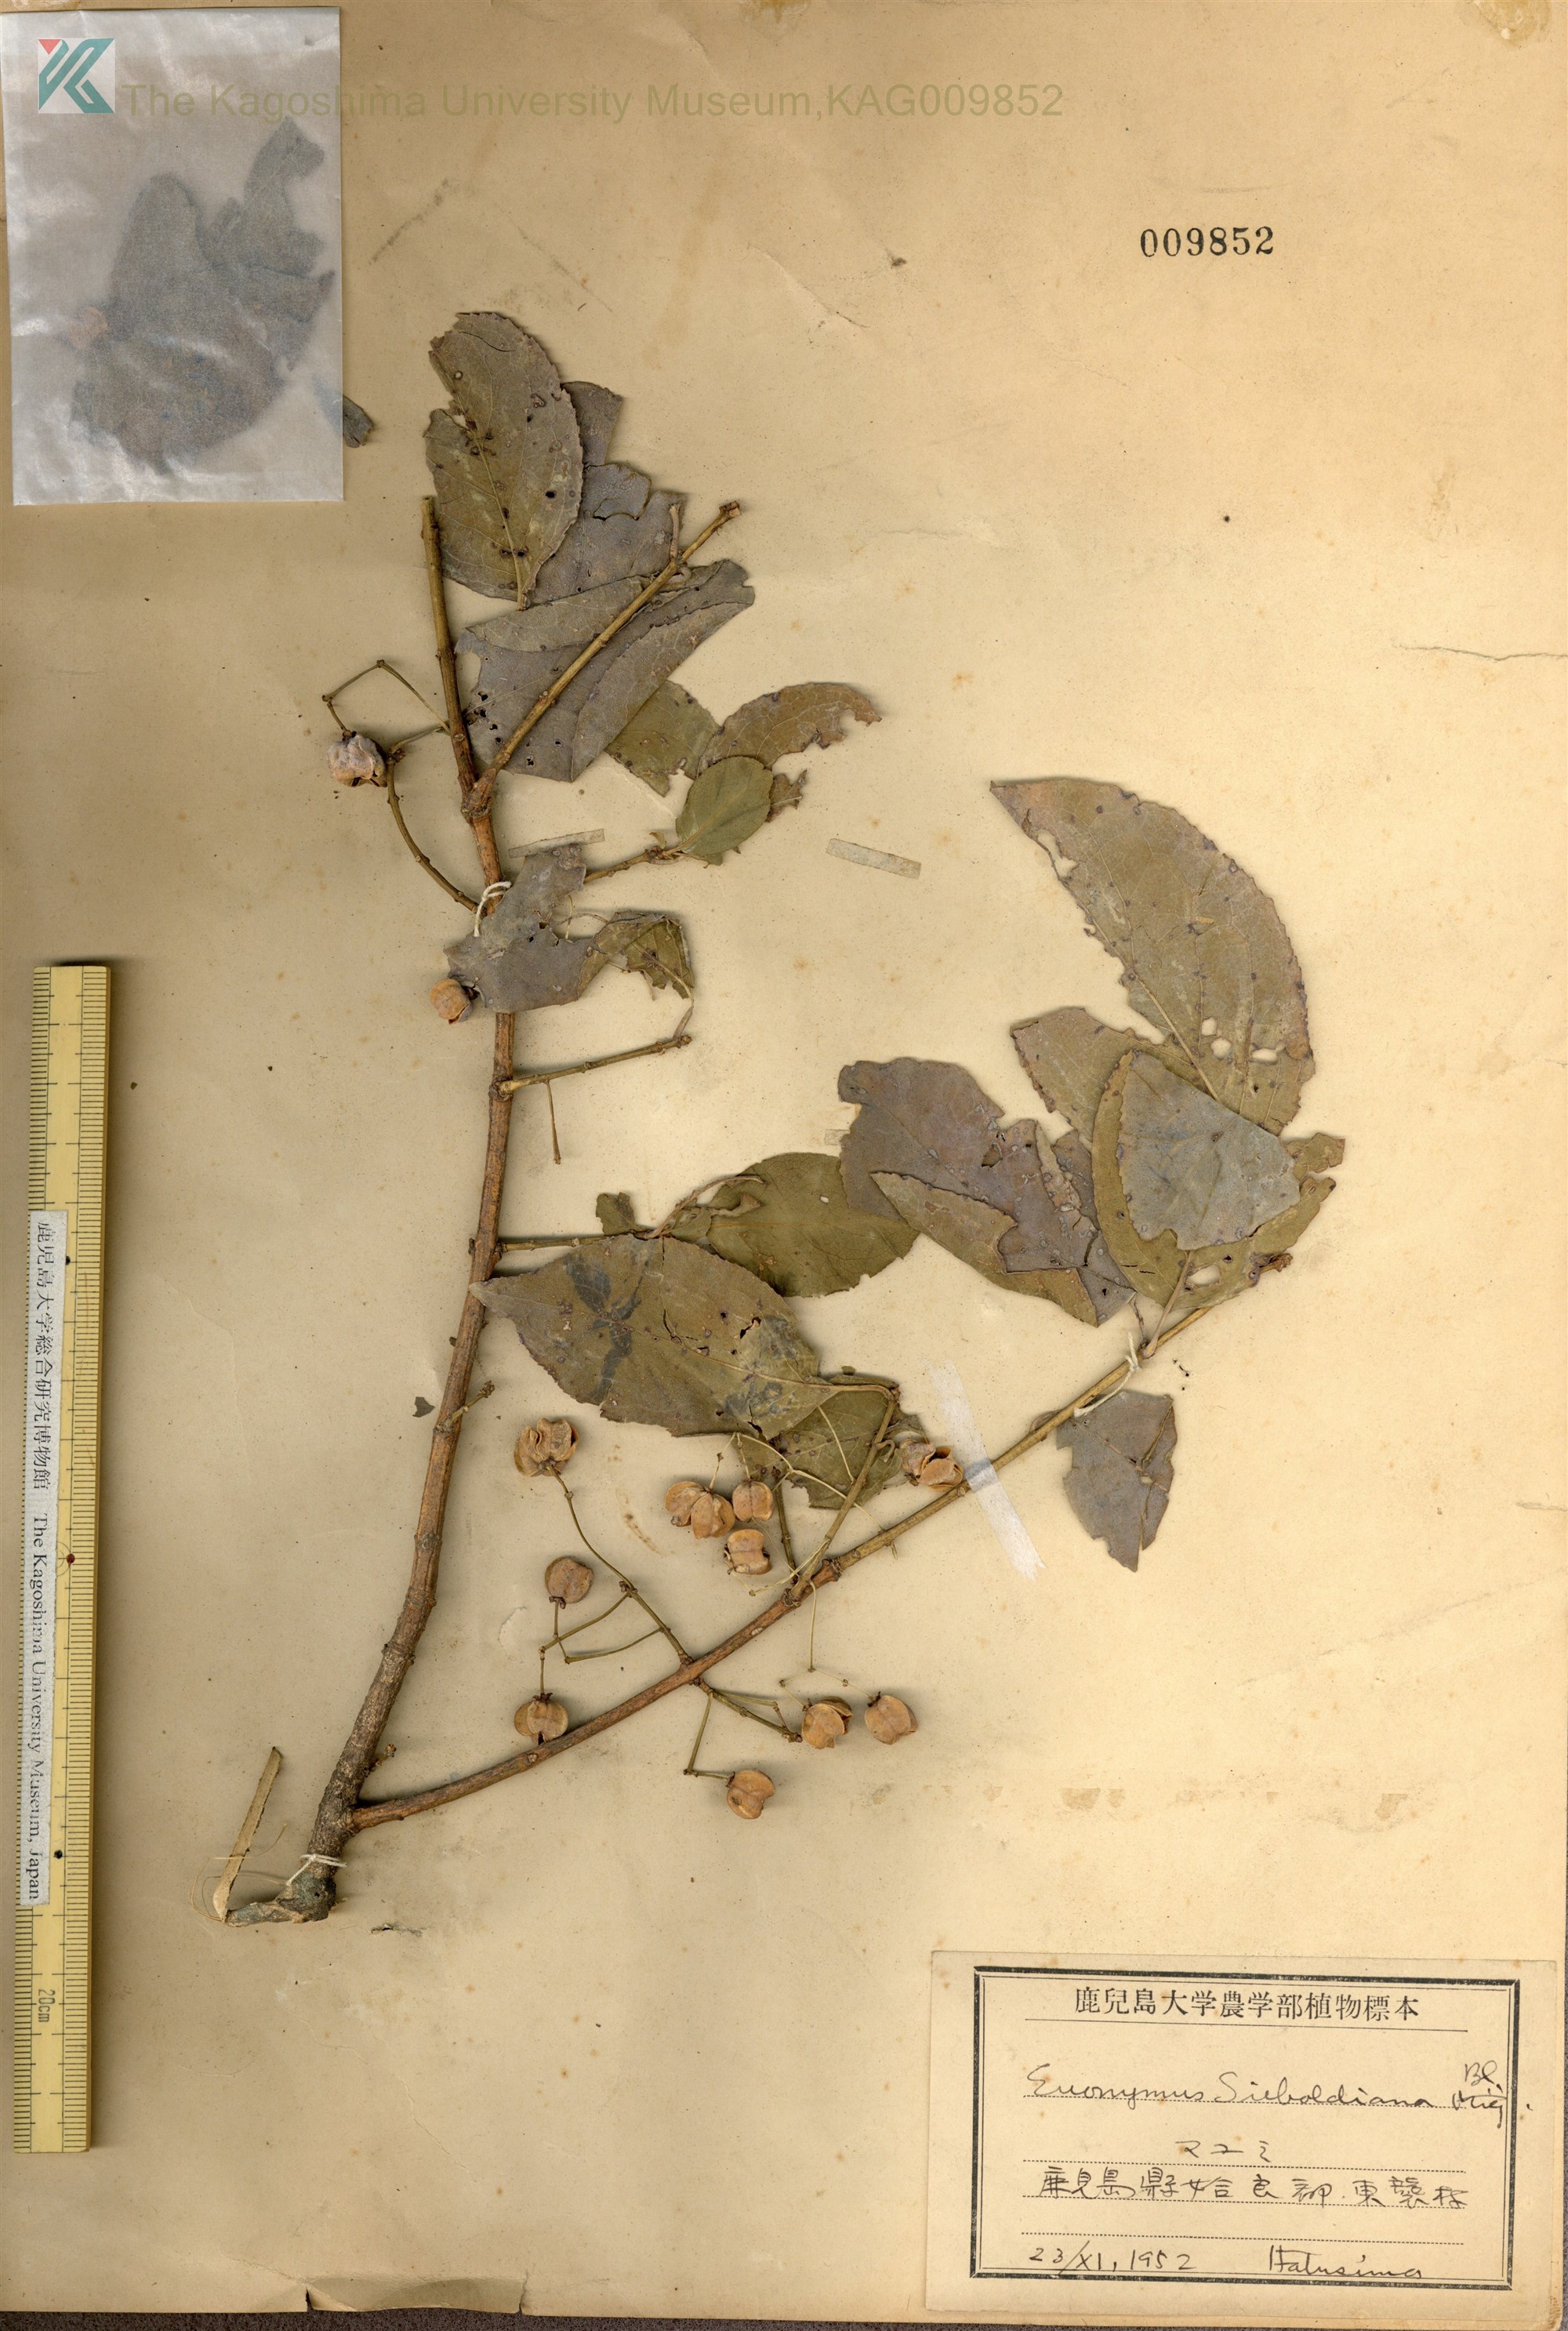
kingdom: Plantae
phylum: Tracheophyta
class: Magnoliopsida
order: Celastrales
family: Celastraceae
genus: Euonymus
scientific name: Euonymus hamiltonianus
